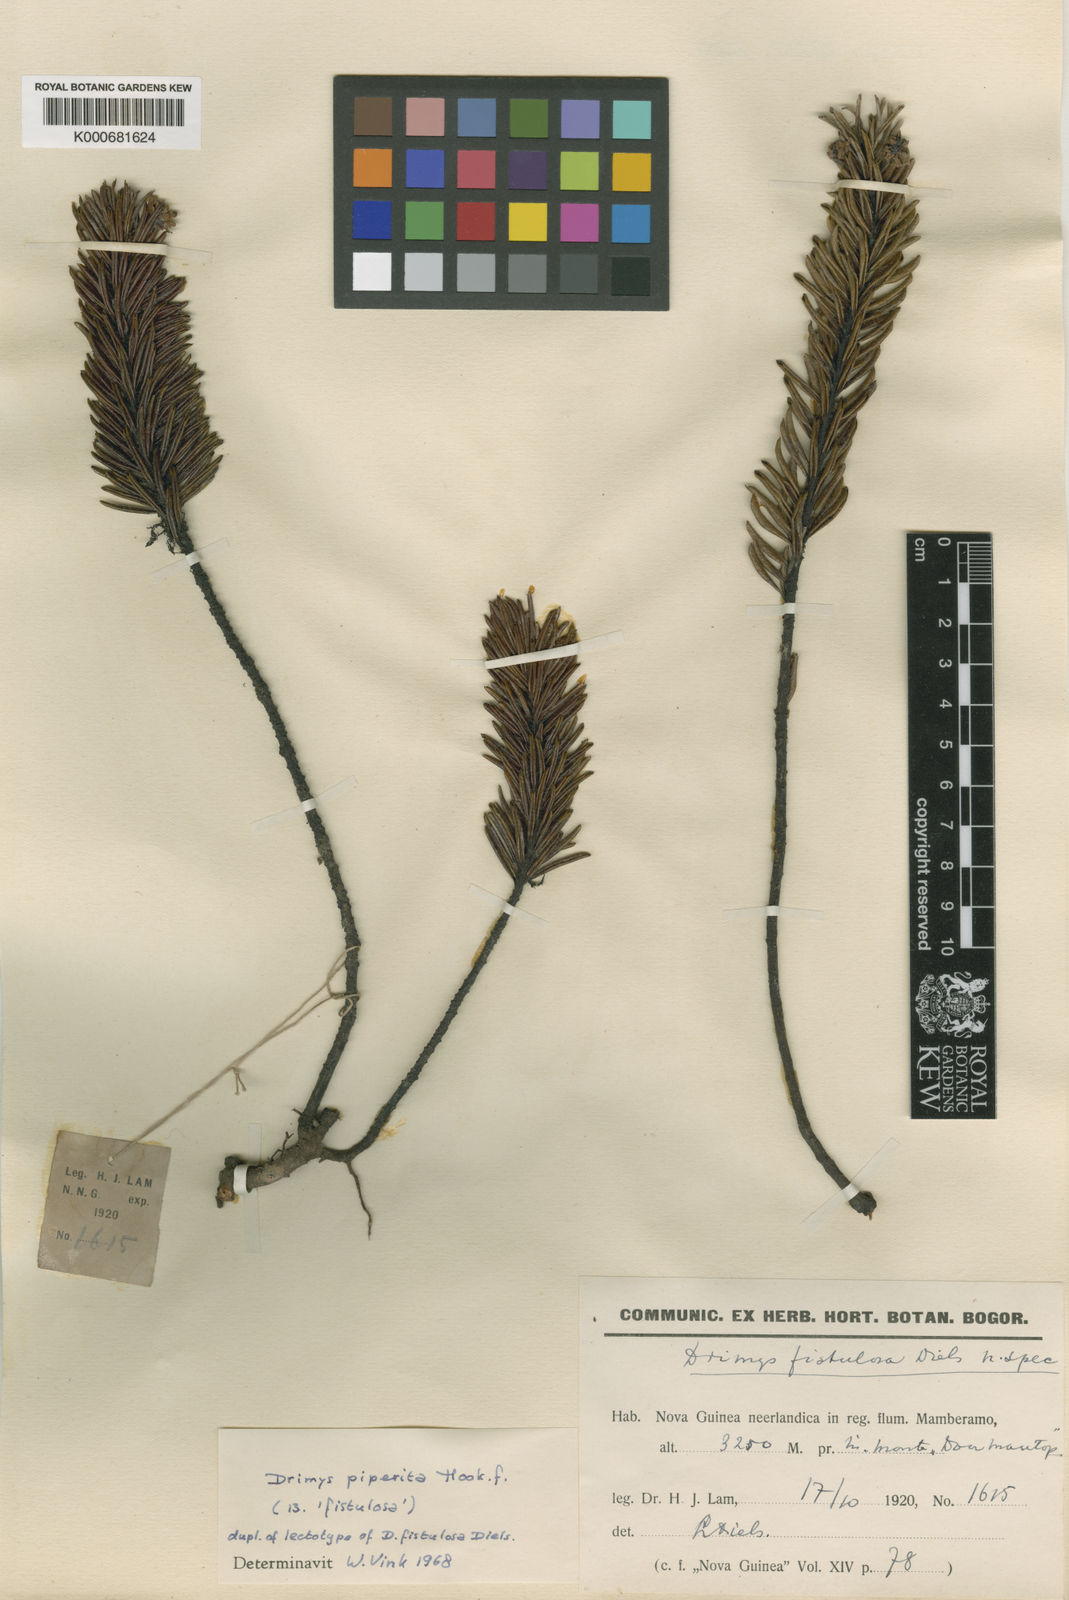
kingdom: Plantae
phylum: Tracheophyta
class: Magnoliopsida
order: Canellales
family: Winteraceae
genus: Drimys
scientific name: Drimys piperita
